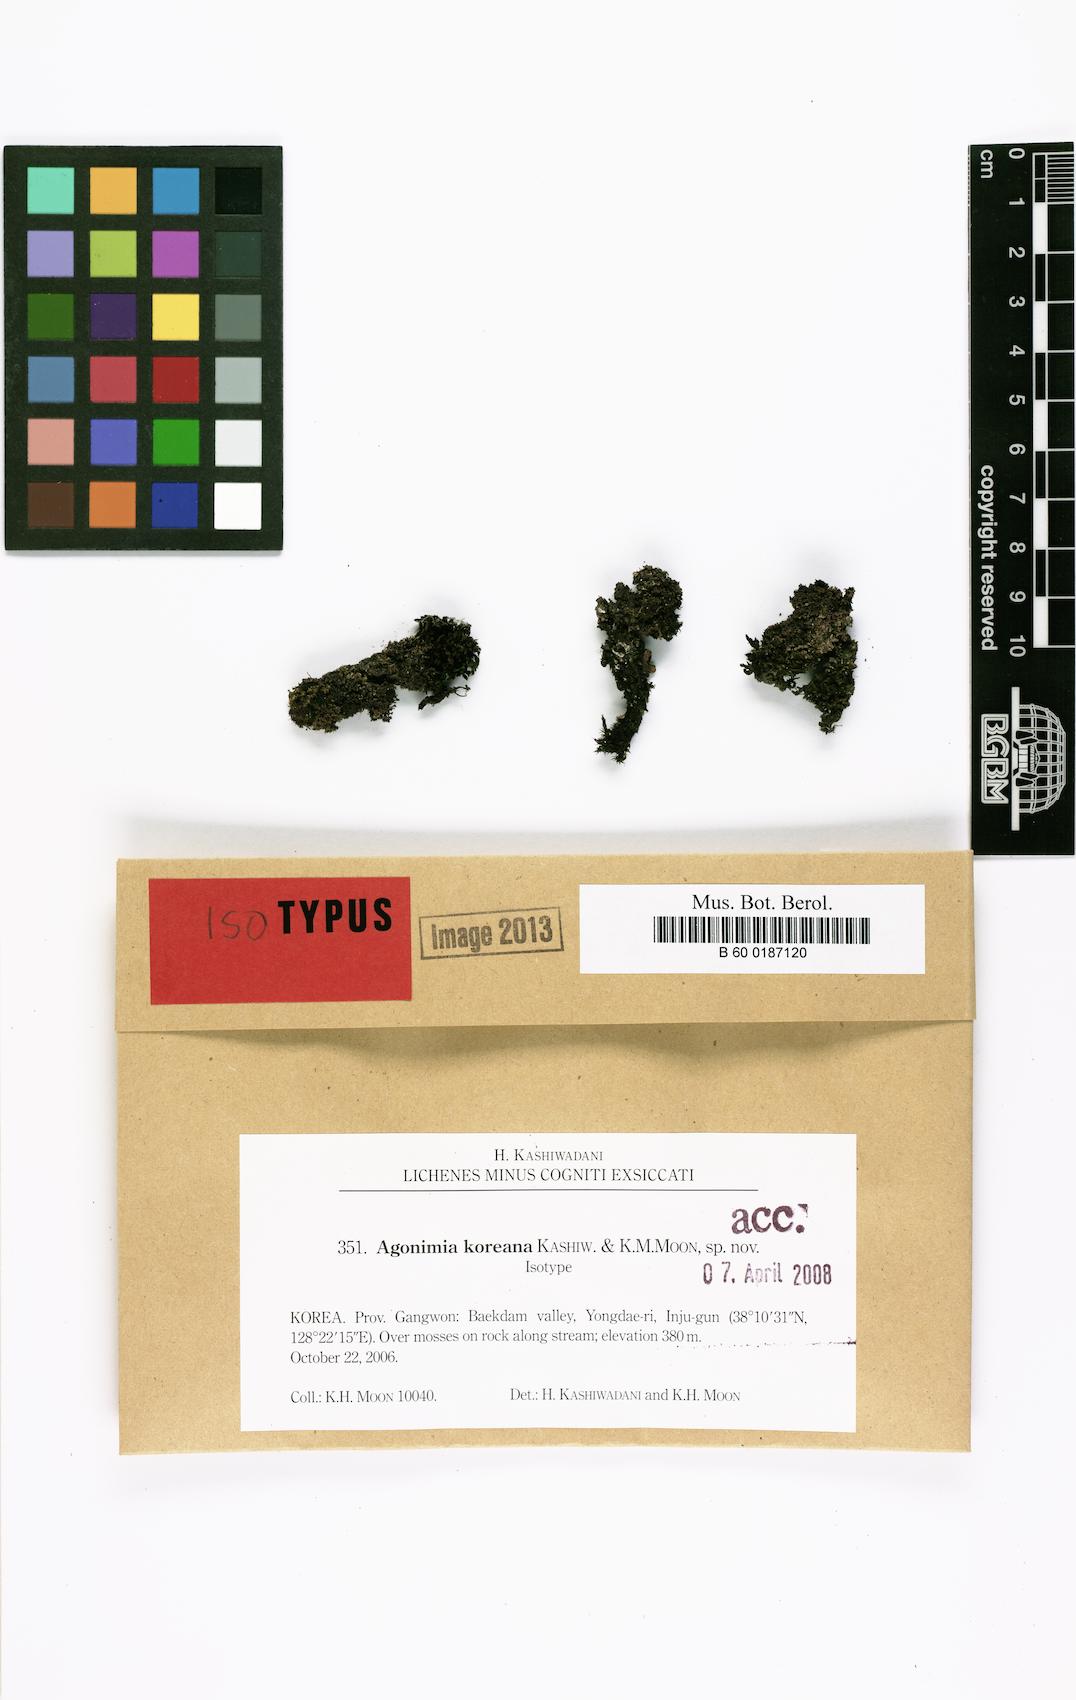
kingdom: Fungi
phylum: Ascomycota
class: Eurotiomycetes
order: Verrucariales
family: Verrucariaceae
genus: Agonimia
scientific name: Agonimia koreana
